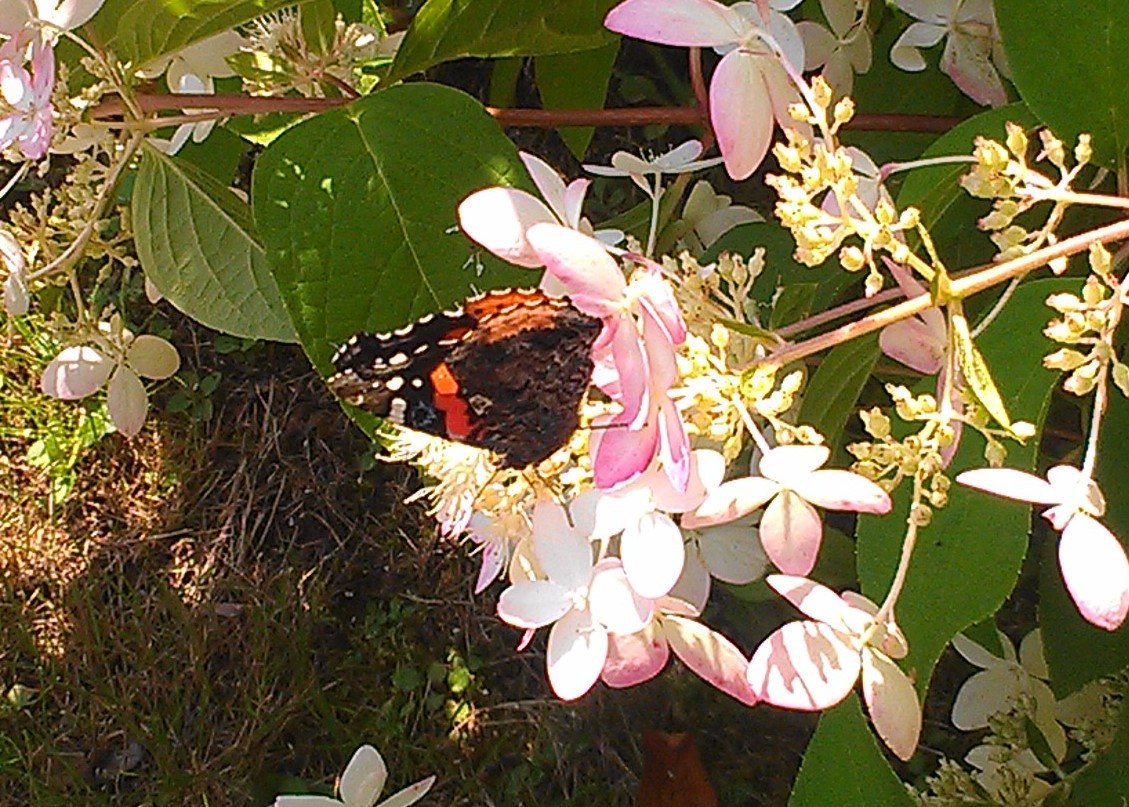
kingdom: Animalia
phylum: Arthropoda
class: Insecta
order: Lepidoptera
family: Nymphalidae
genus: Vanessa
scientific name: Vanessa atalanta
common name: Red Admiral
